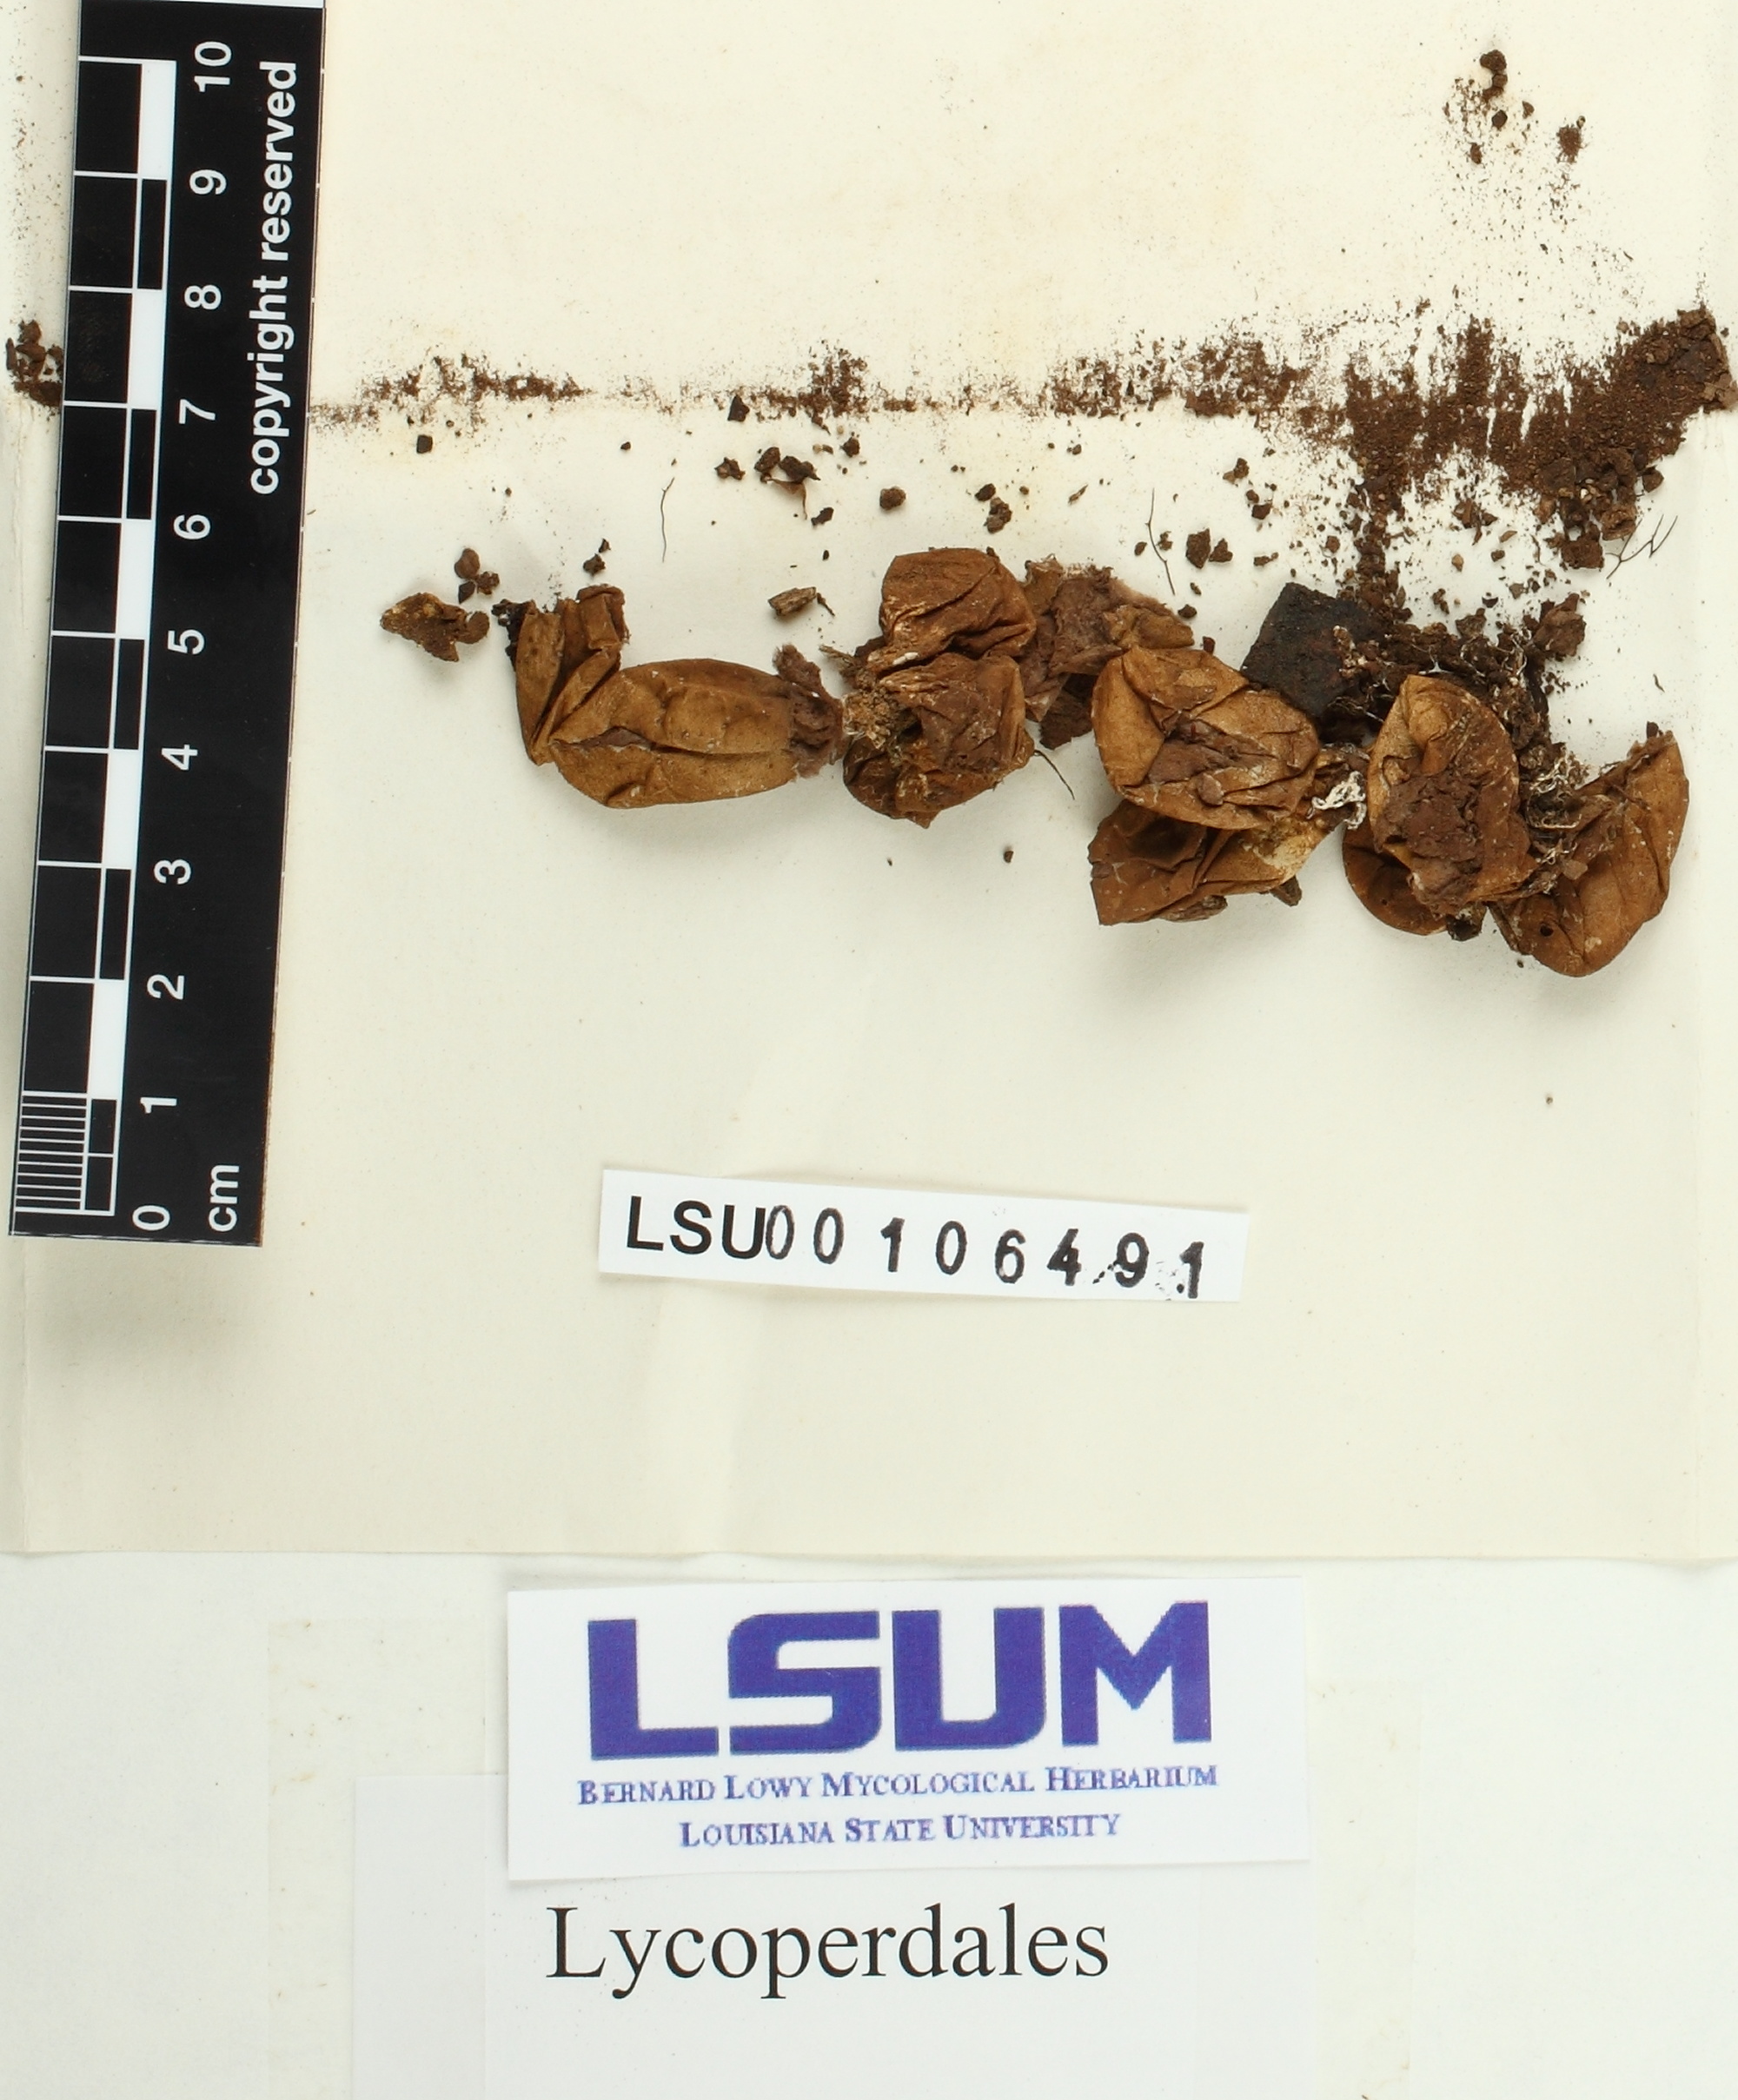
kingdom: Fungi
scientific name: Fungi
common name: Fungi
